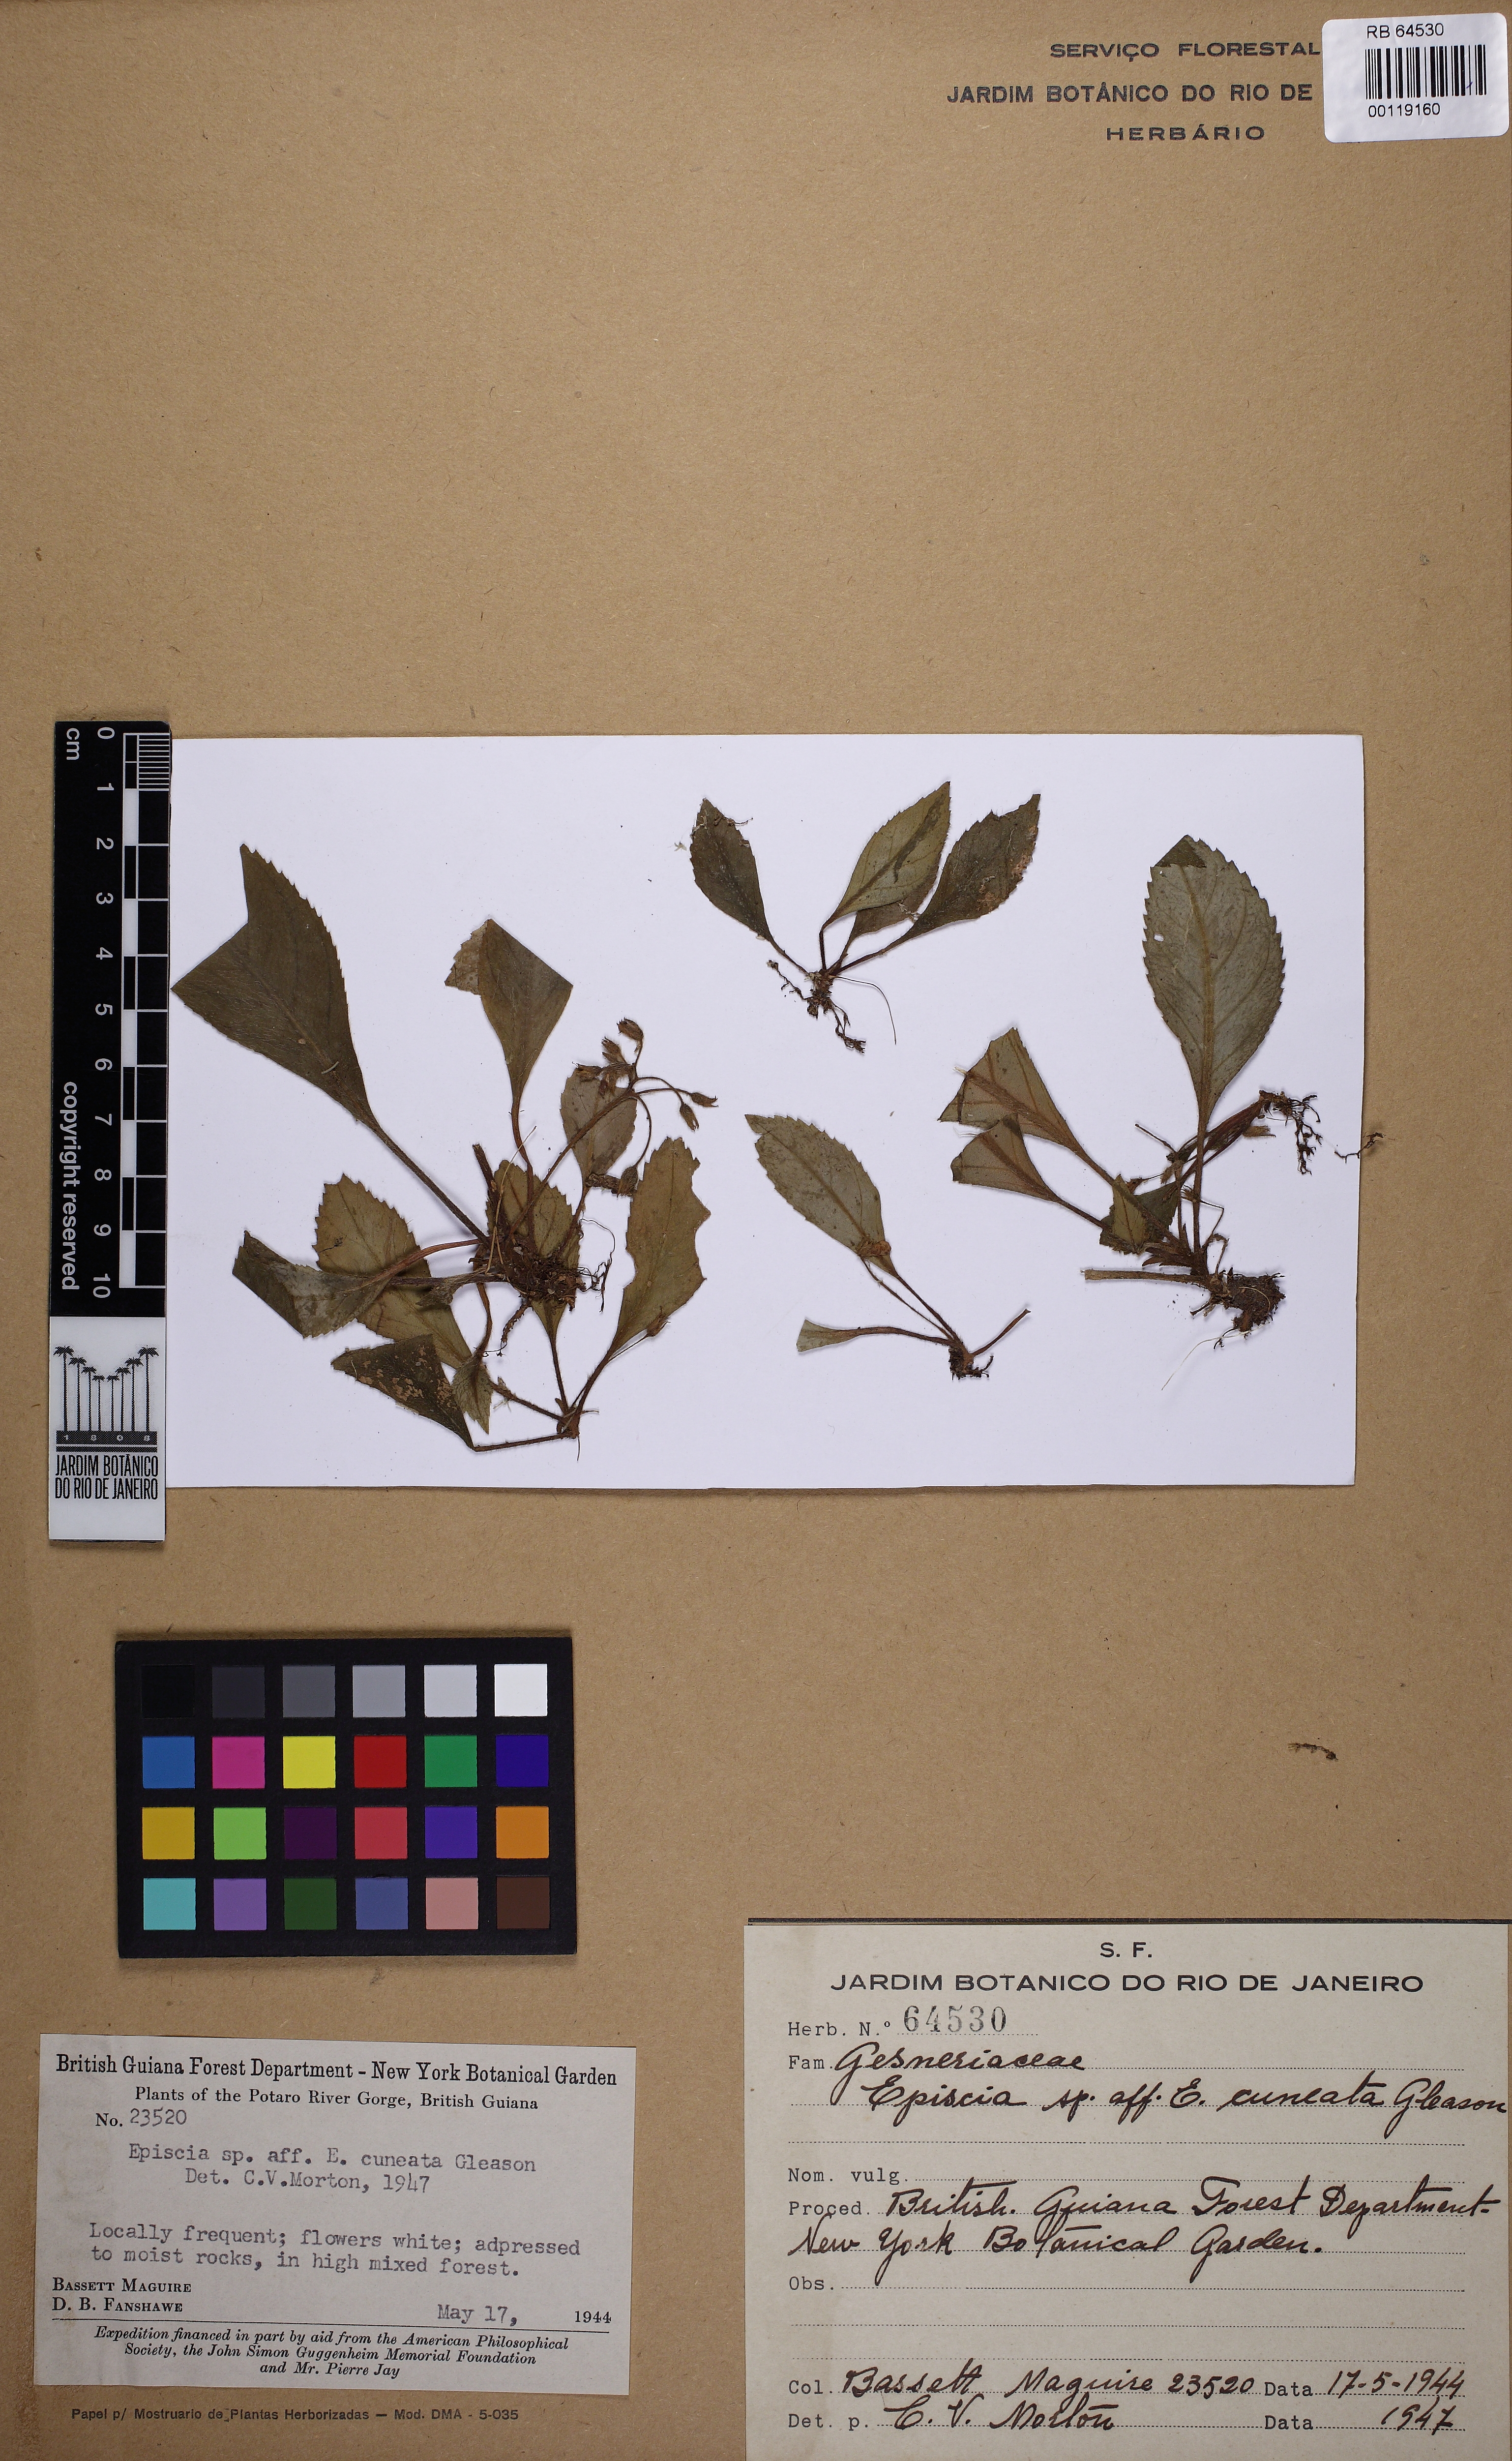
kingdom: Plantae
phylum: Tracheophyta
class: Magnoliopsida
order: Lamiales
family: Gesneriaceae
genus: Episcia
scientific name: Episcia
